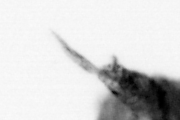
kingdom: Animalia
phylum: Annelida
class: Polychaeta
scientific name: Polychaeta
